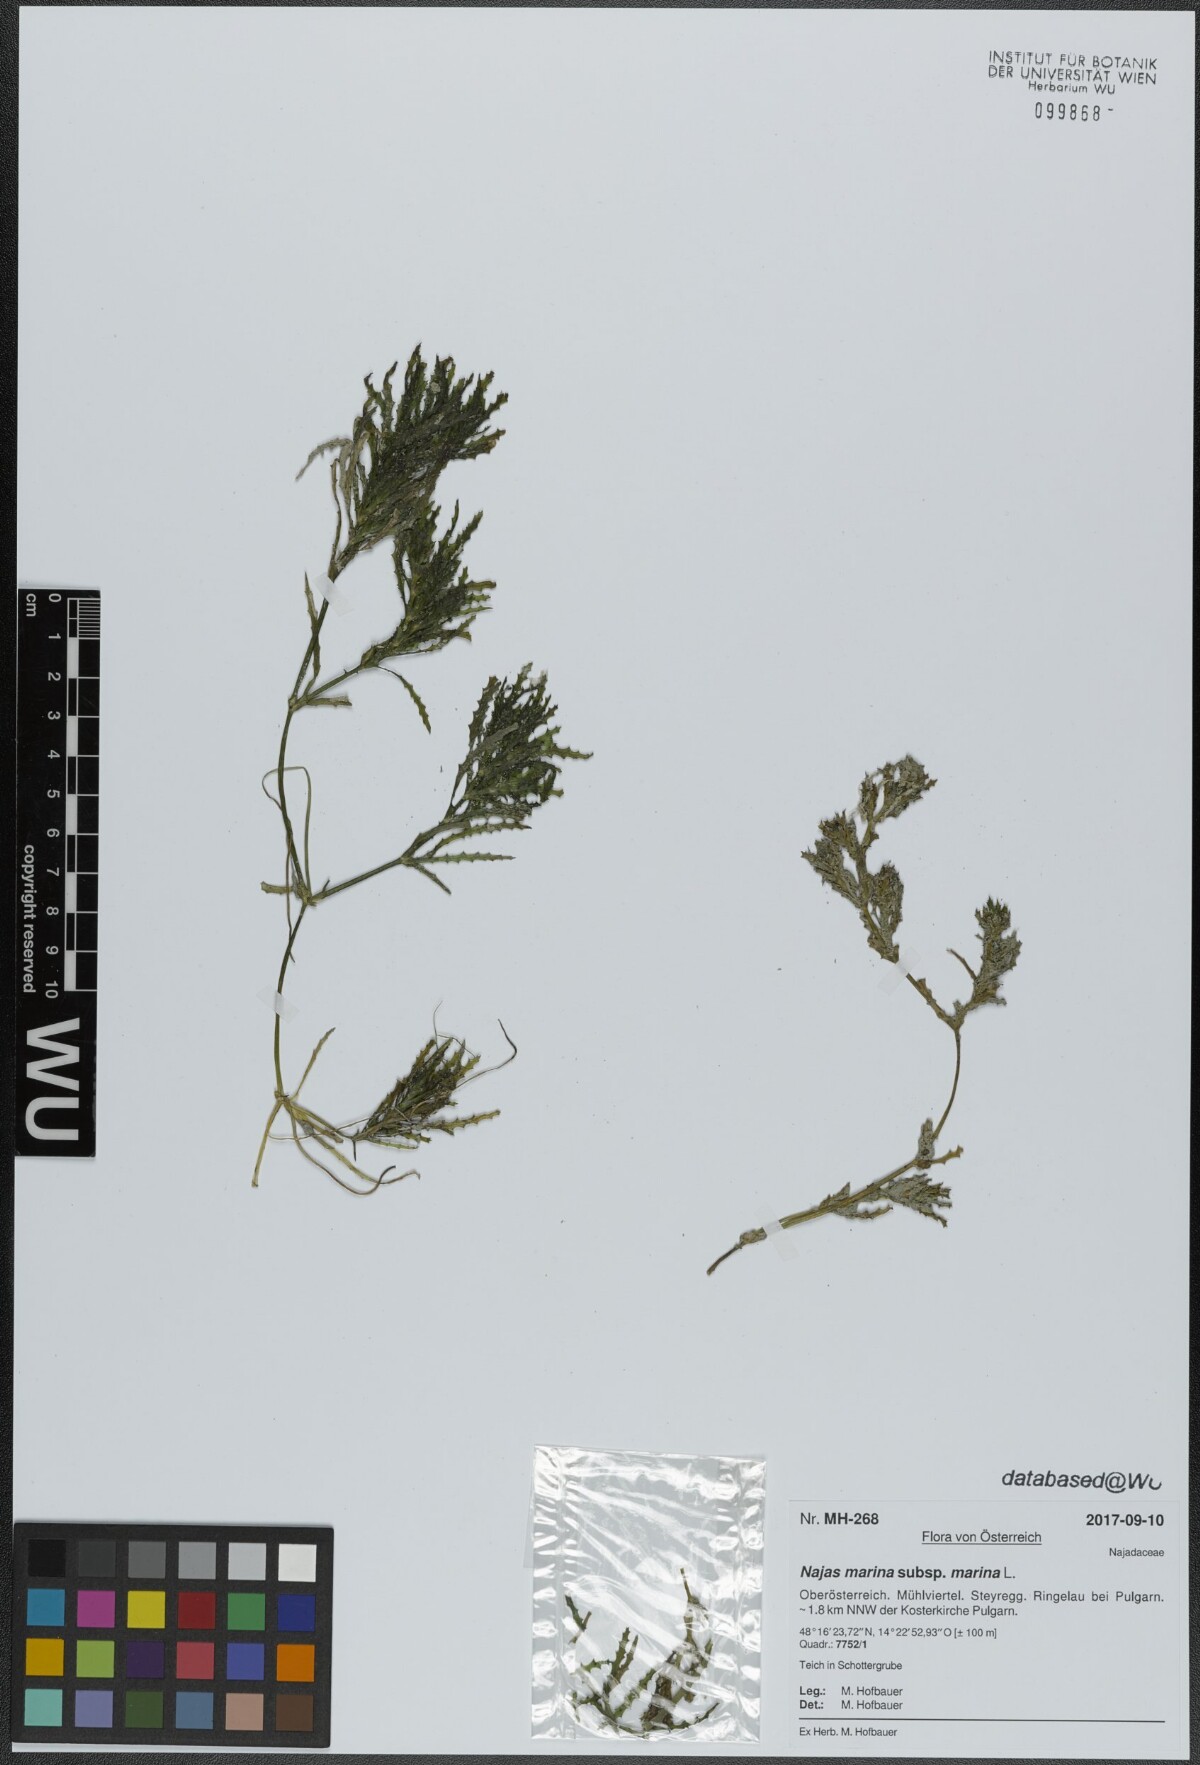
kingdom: Plantae
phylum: Tracheophyta
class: Liliopsida
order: Alismatales
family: Hydrocharitaceae
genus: Najas
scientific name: Najas marina
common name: Holly-leaved naiad
